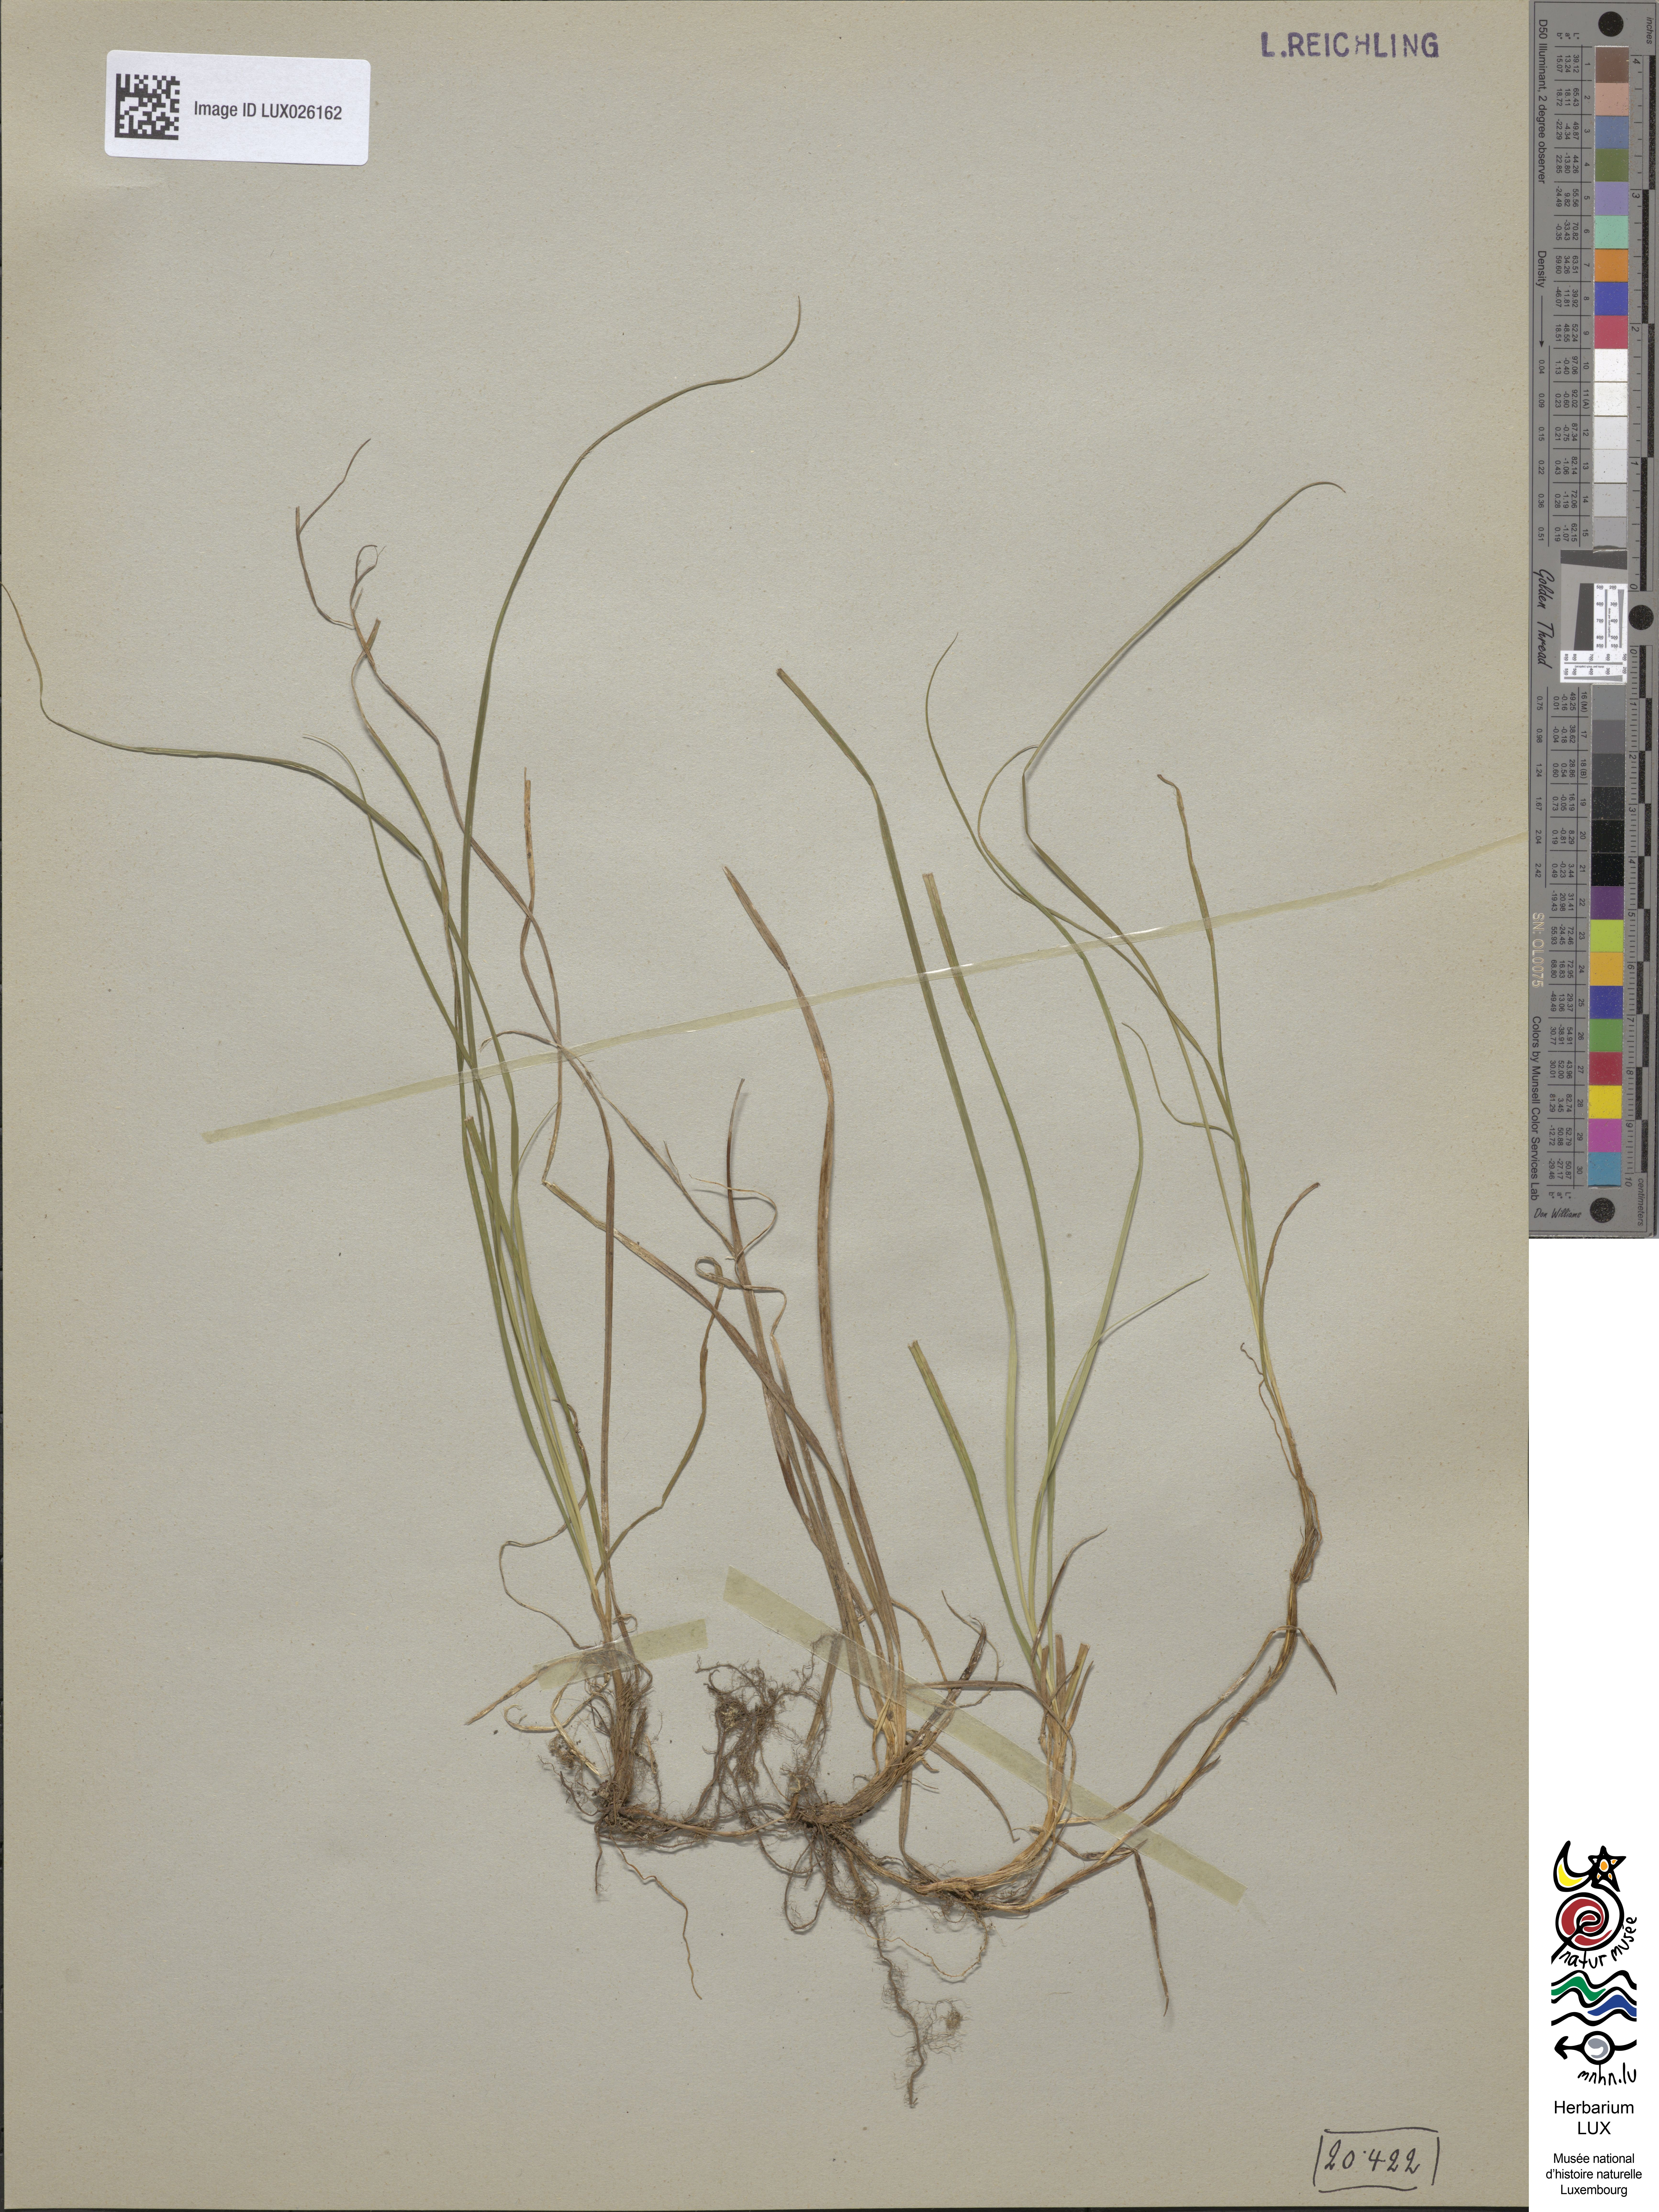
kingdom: Plantae
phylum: Tracheophyta
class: Liliopsida
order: Poales
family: Cyperaceae
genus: Carex
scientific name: Carex caryophyllea
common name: Spring sedge
